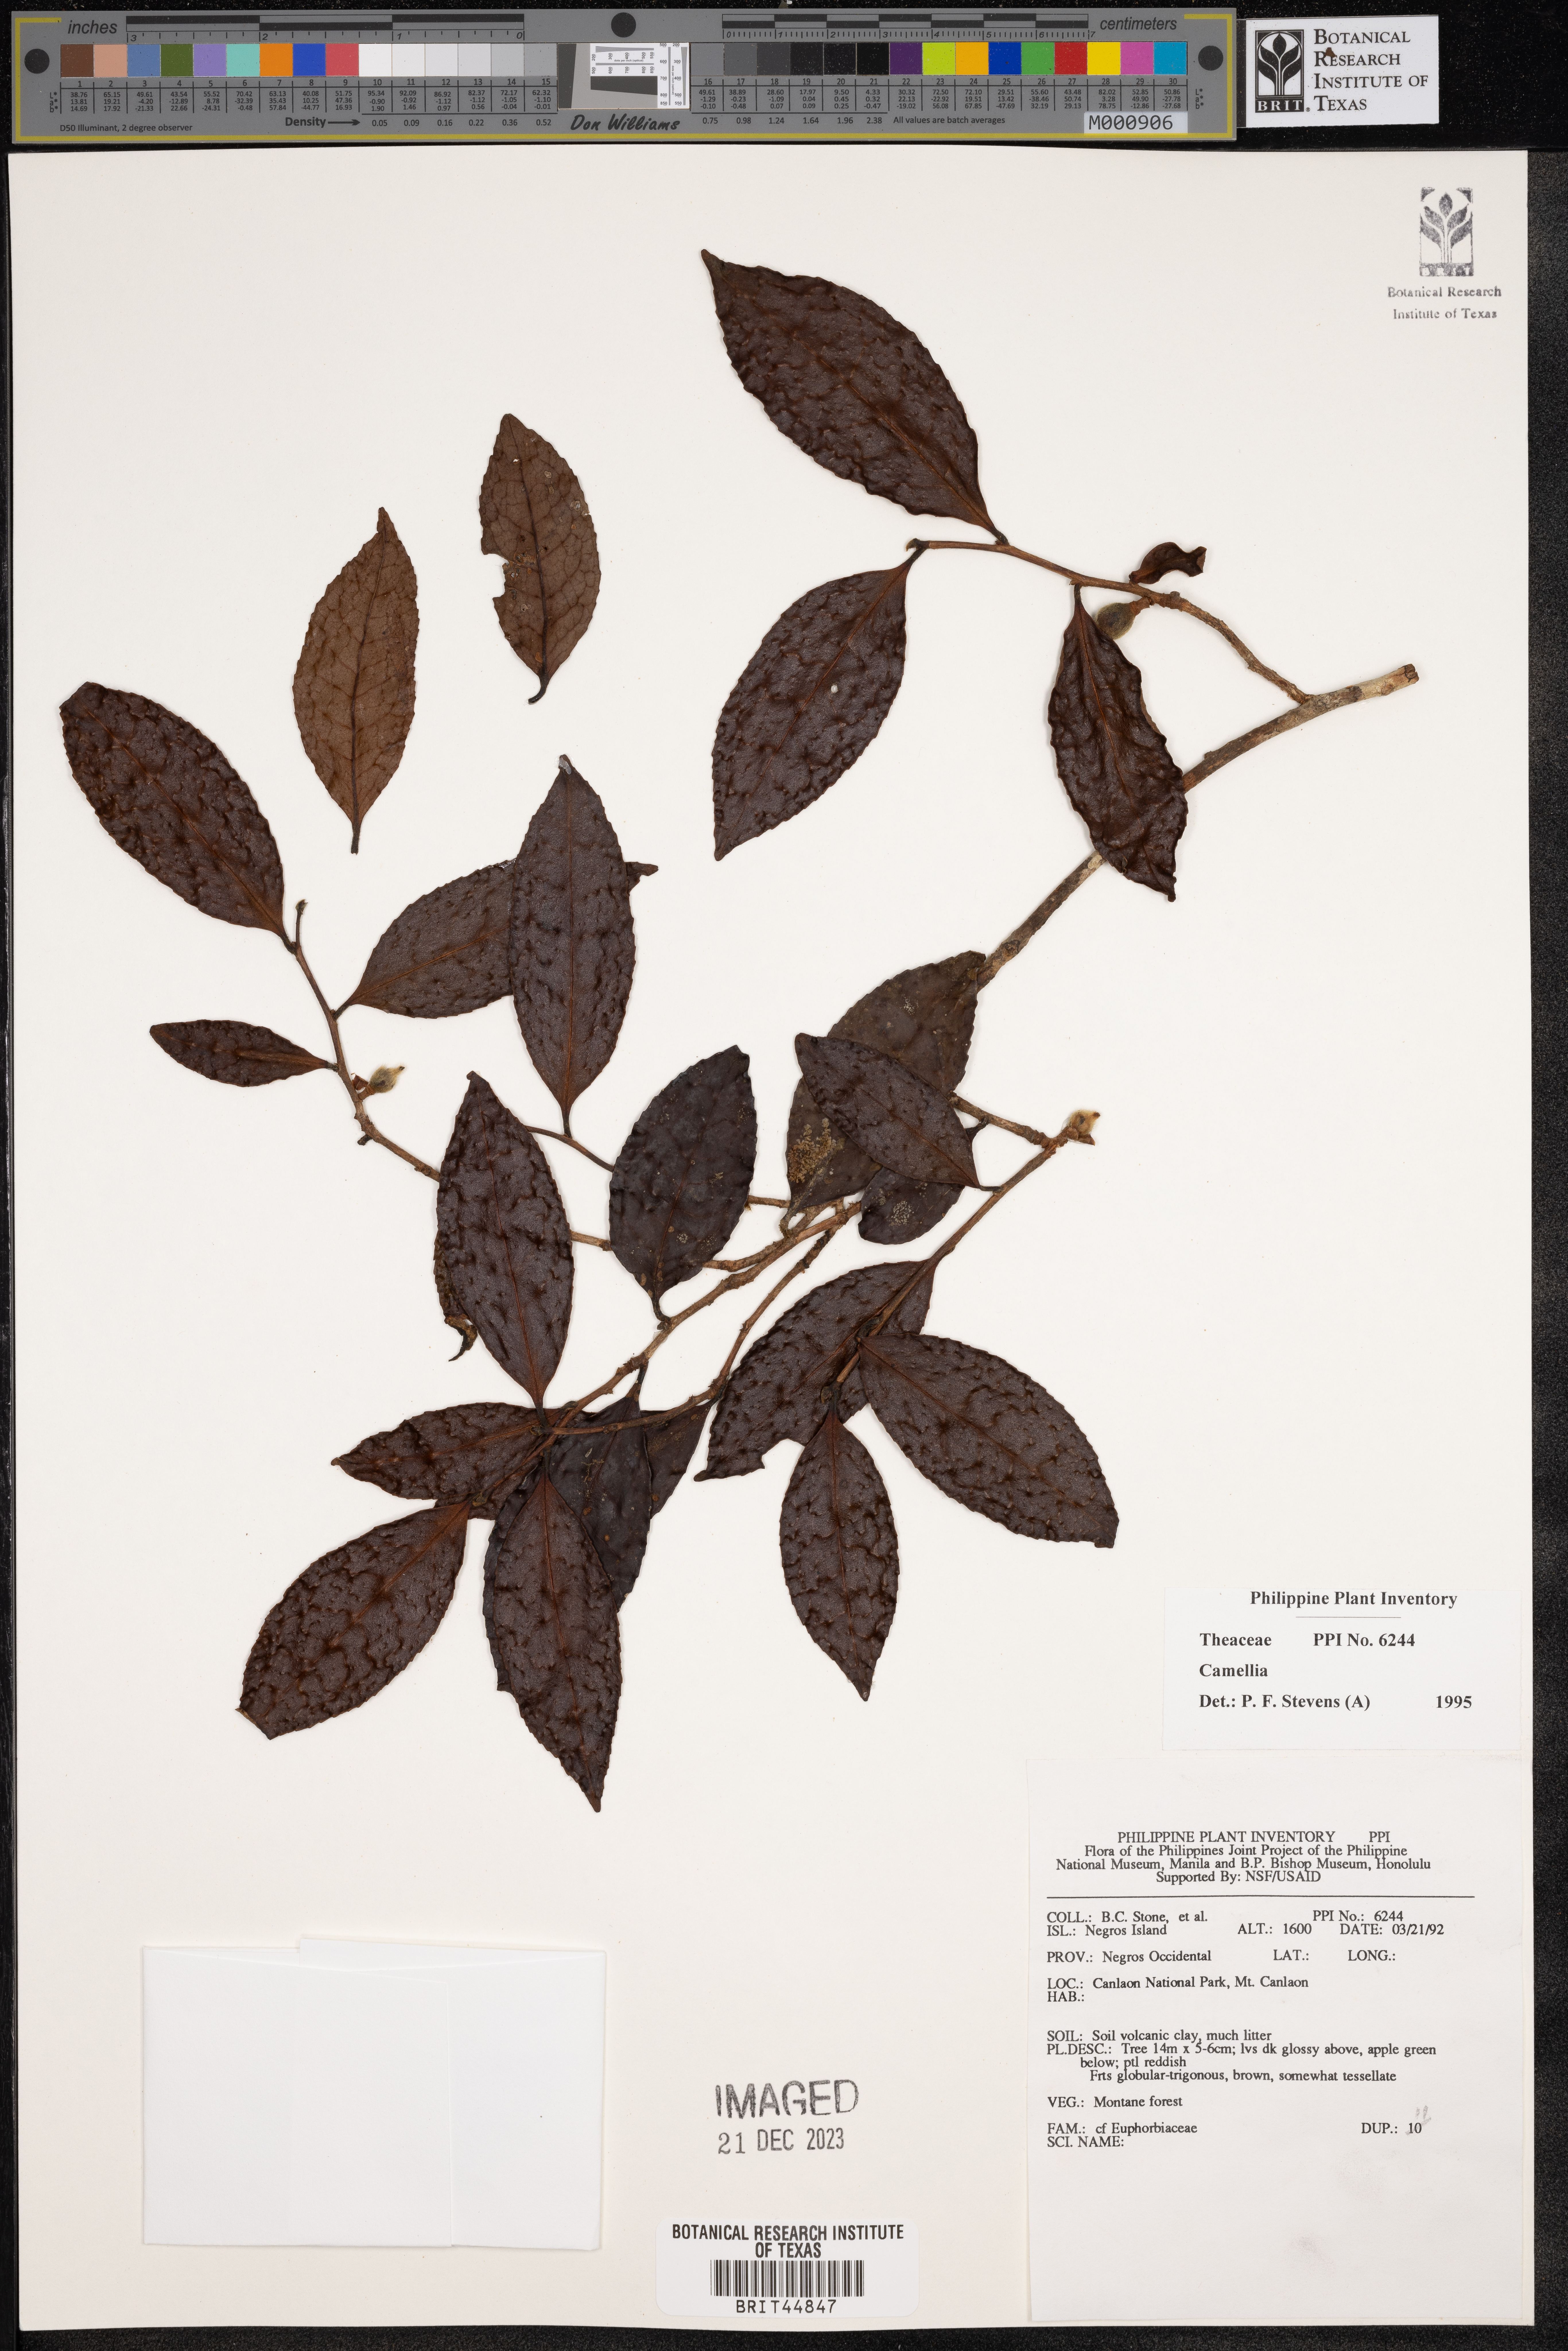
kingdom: Plantae
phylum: Tracheophyta
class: Magnoliopsida
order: Ericales
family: Theaceae
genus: Camellia
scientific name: Camellia
